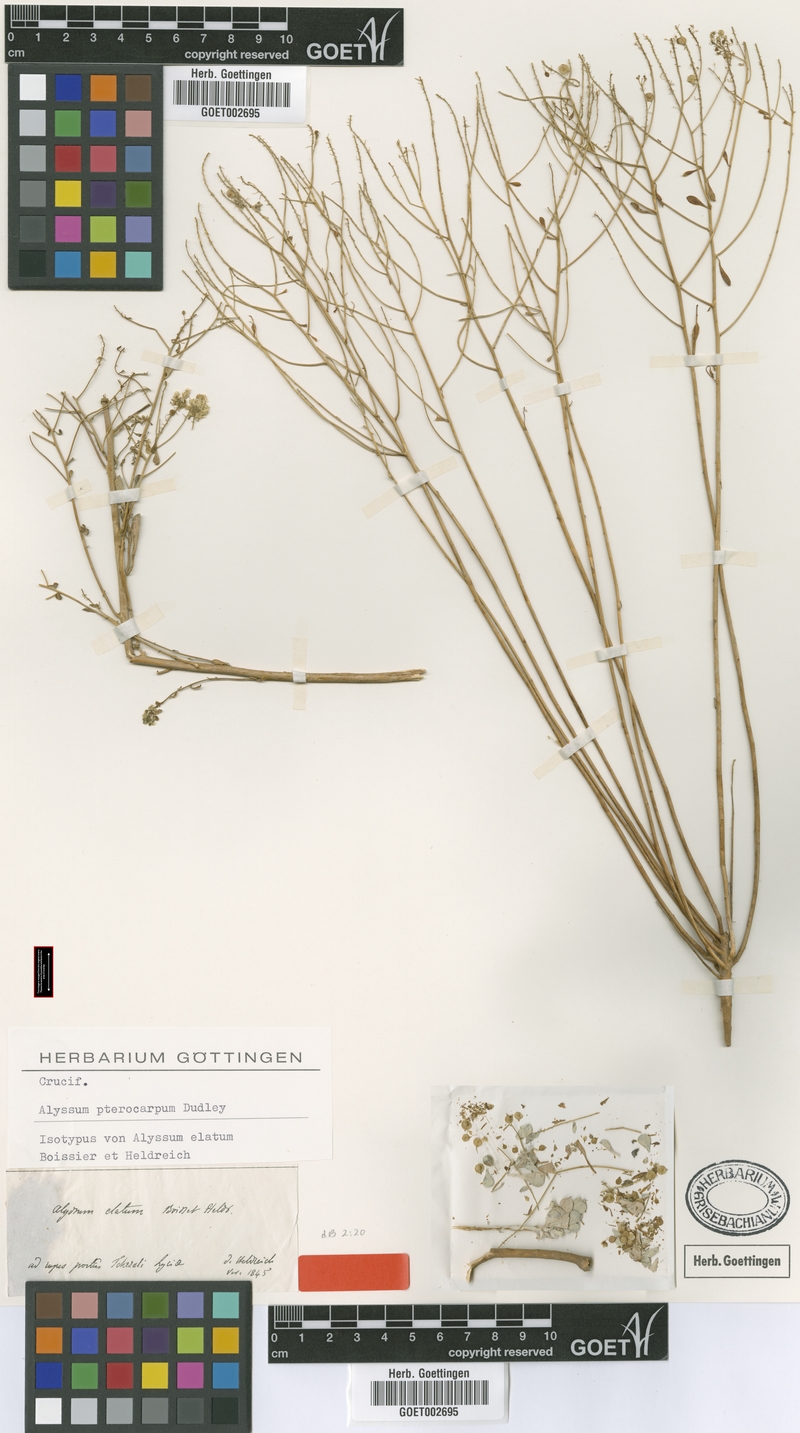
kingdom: Plantae
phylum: Tracheophyta
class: Magnoliopsida
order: Brassicales
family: Brassicaceae
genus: Odontarrhena
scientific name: Odontarrhena pterocarpa
